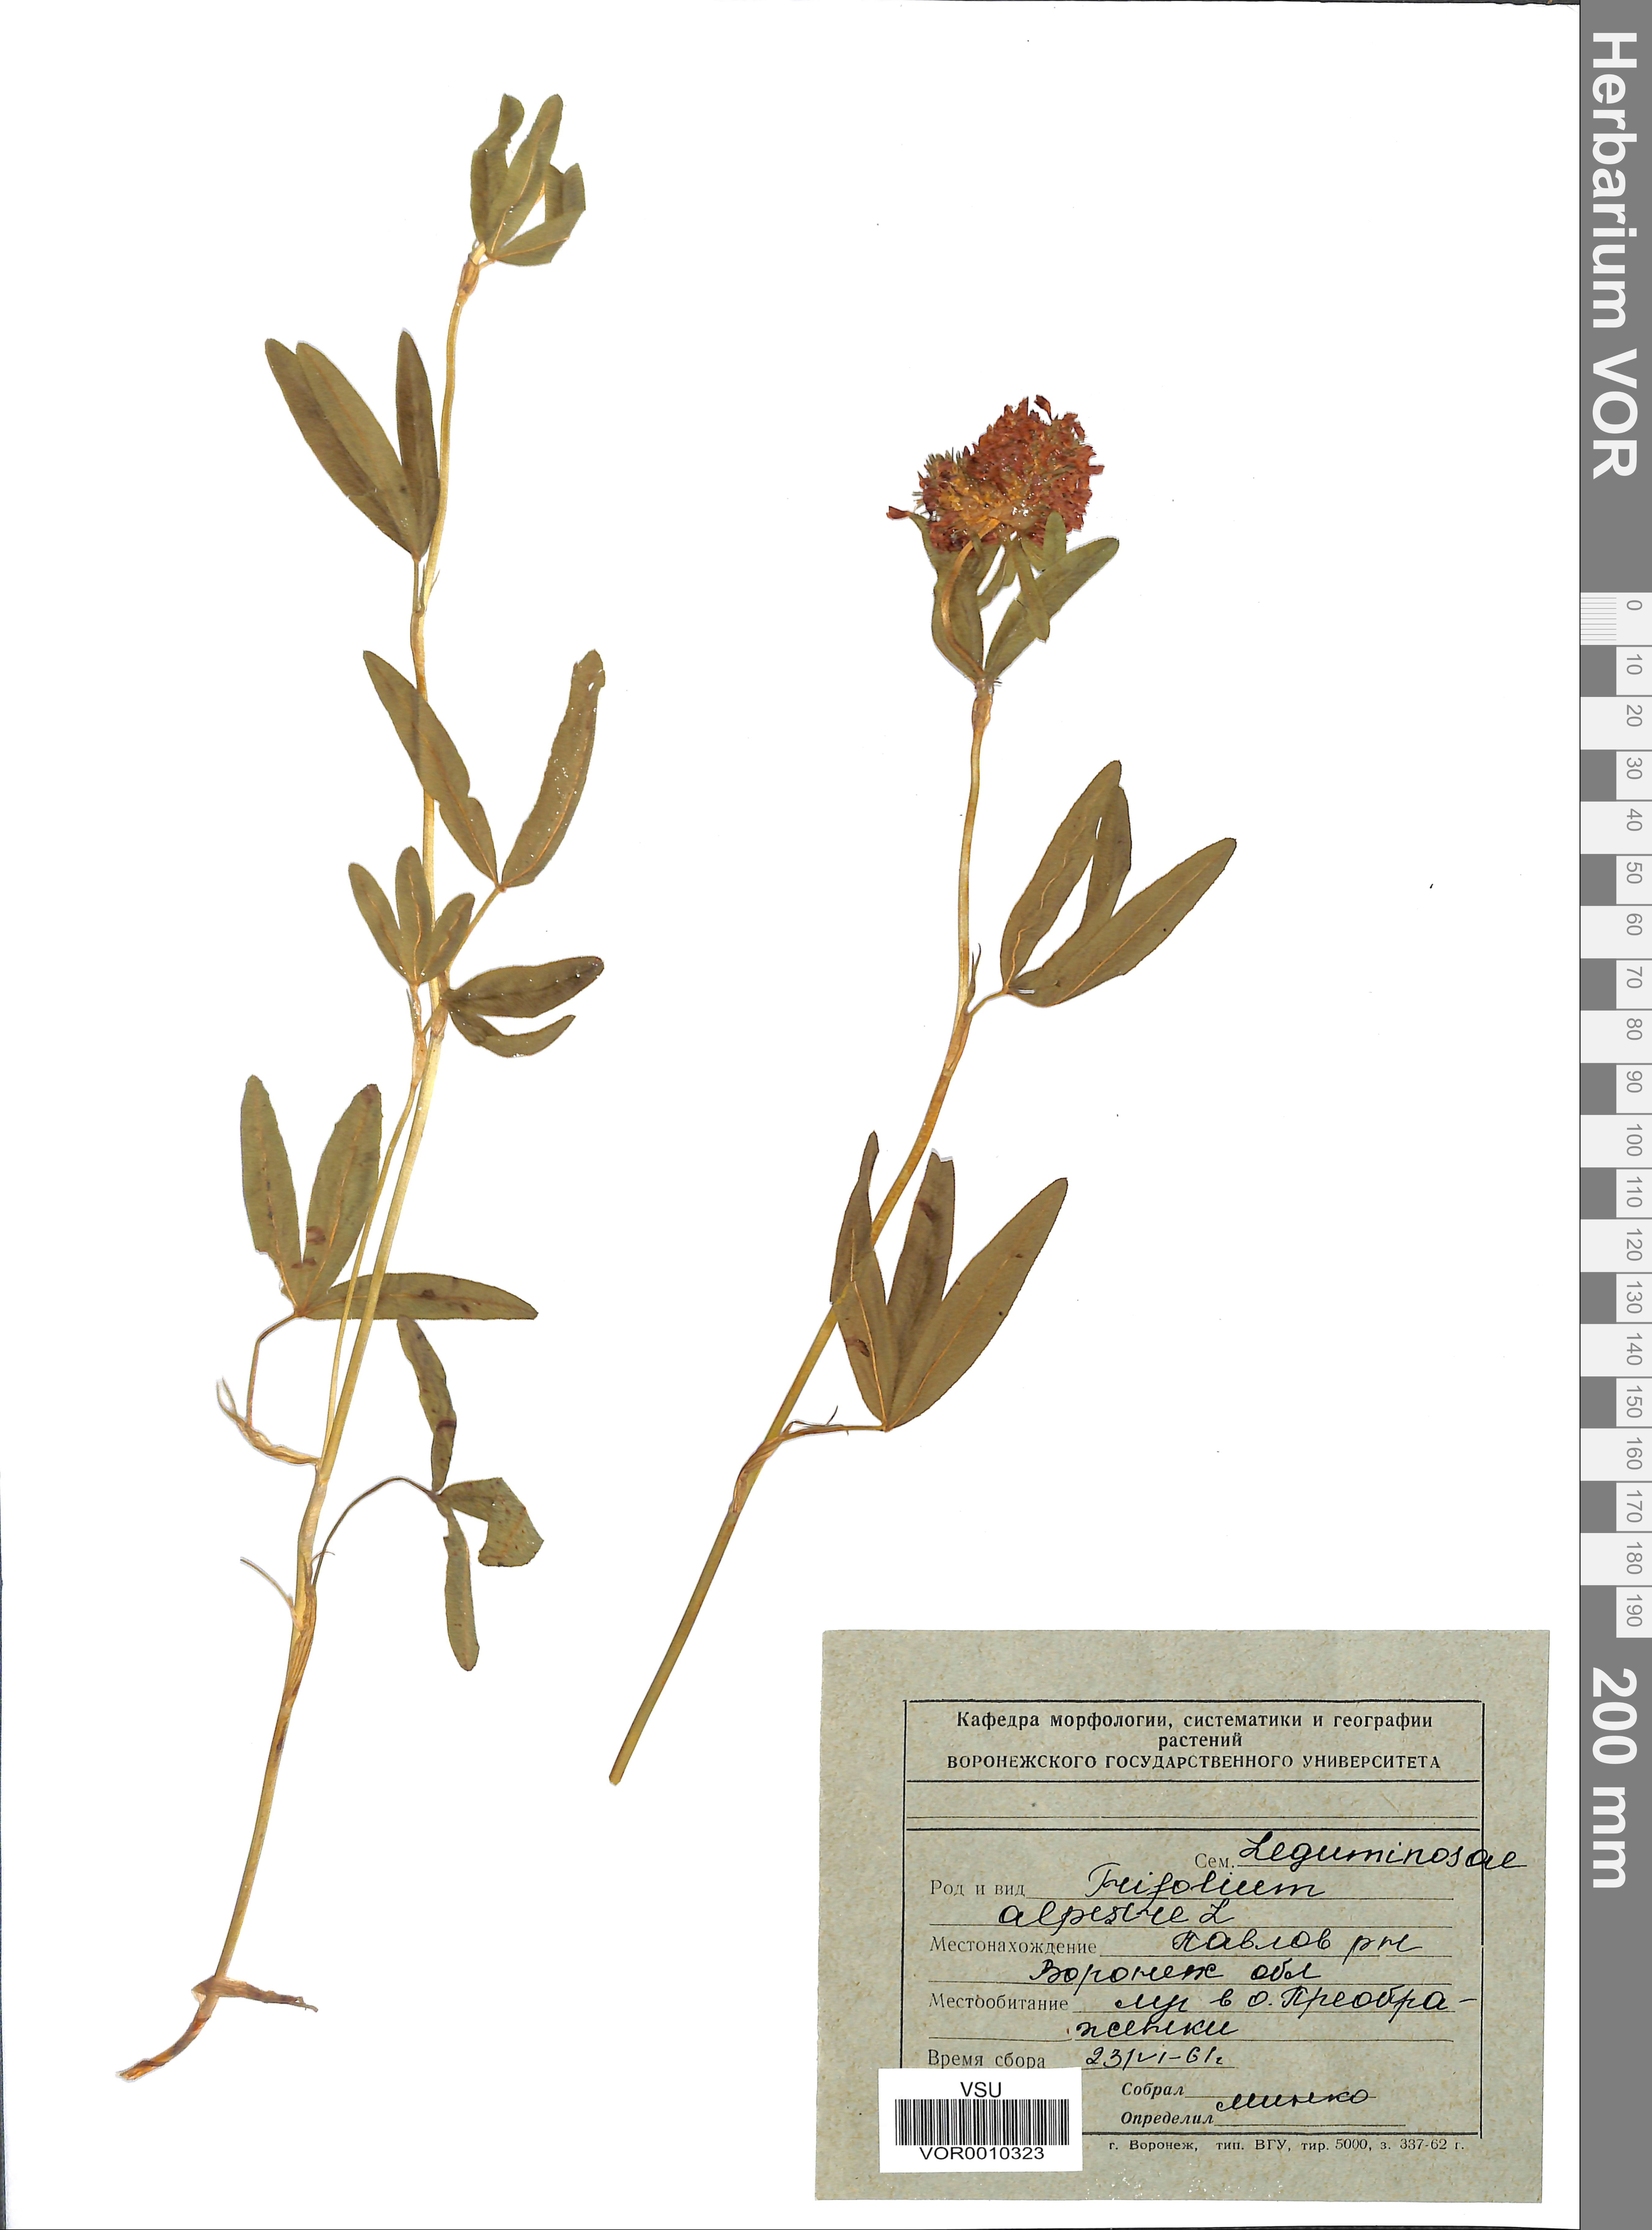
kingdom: Plantae
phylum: Tracheophyta
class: Magnoliopsida
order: Fabales
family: Fabaceae
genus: Trifolium
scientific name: Trifolium alpestre
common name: Owl-head clover
